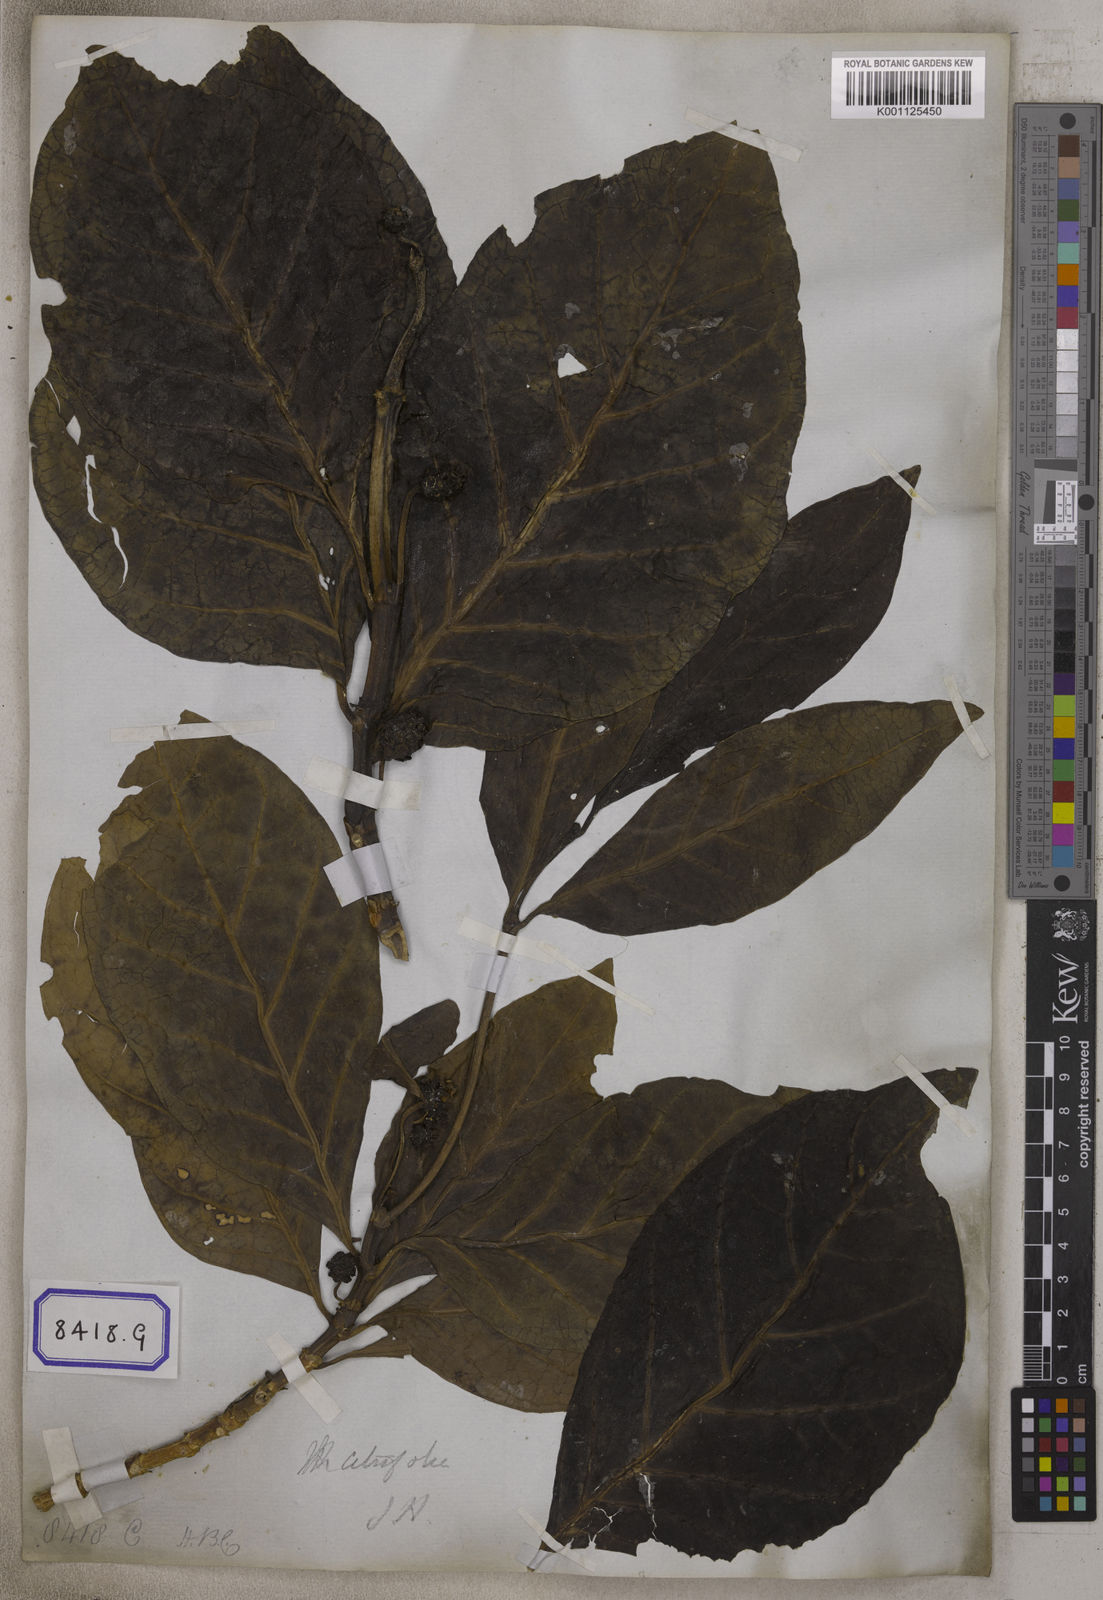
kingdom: Plantae
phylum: Tracheophyta
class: Magnoliopsida
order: Gentianales
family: Rubiaceae
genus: Morinda
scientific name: Morinda citrifolia
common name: Indian-mulberry
